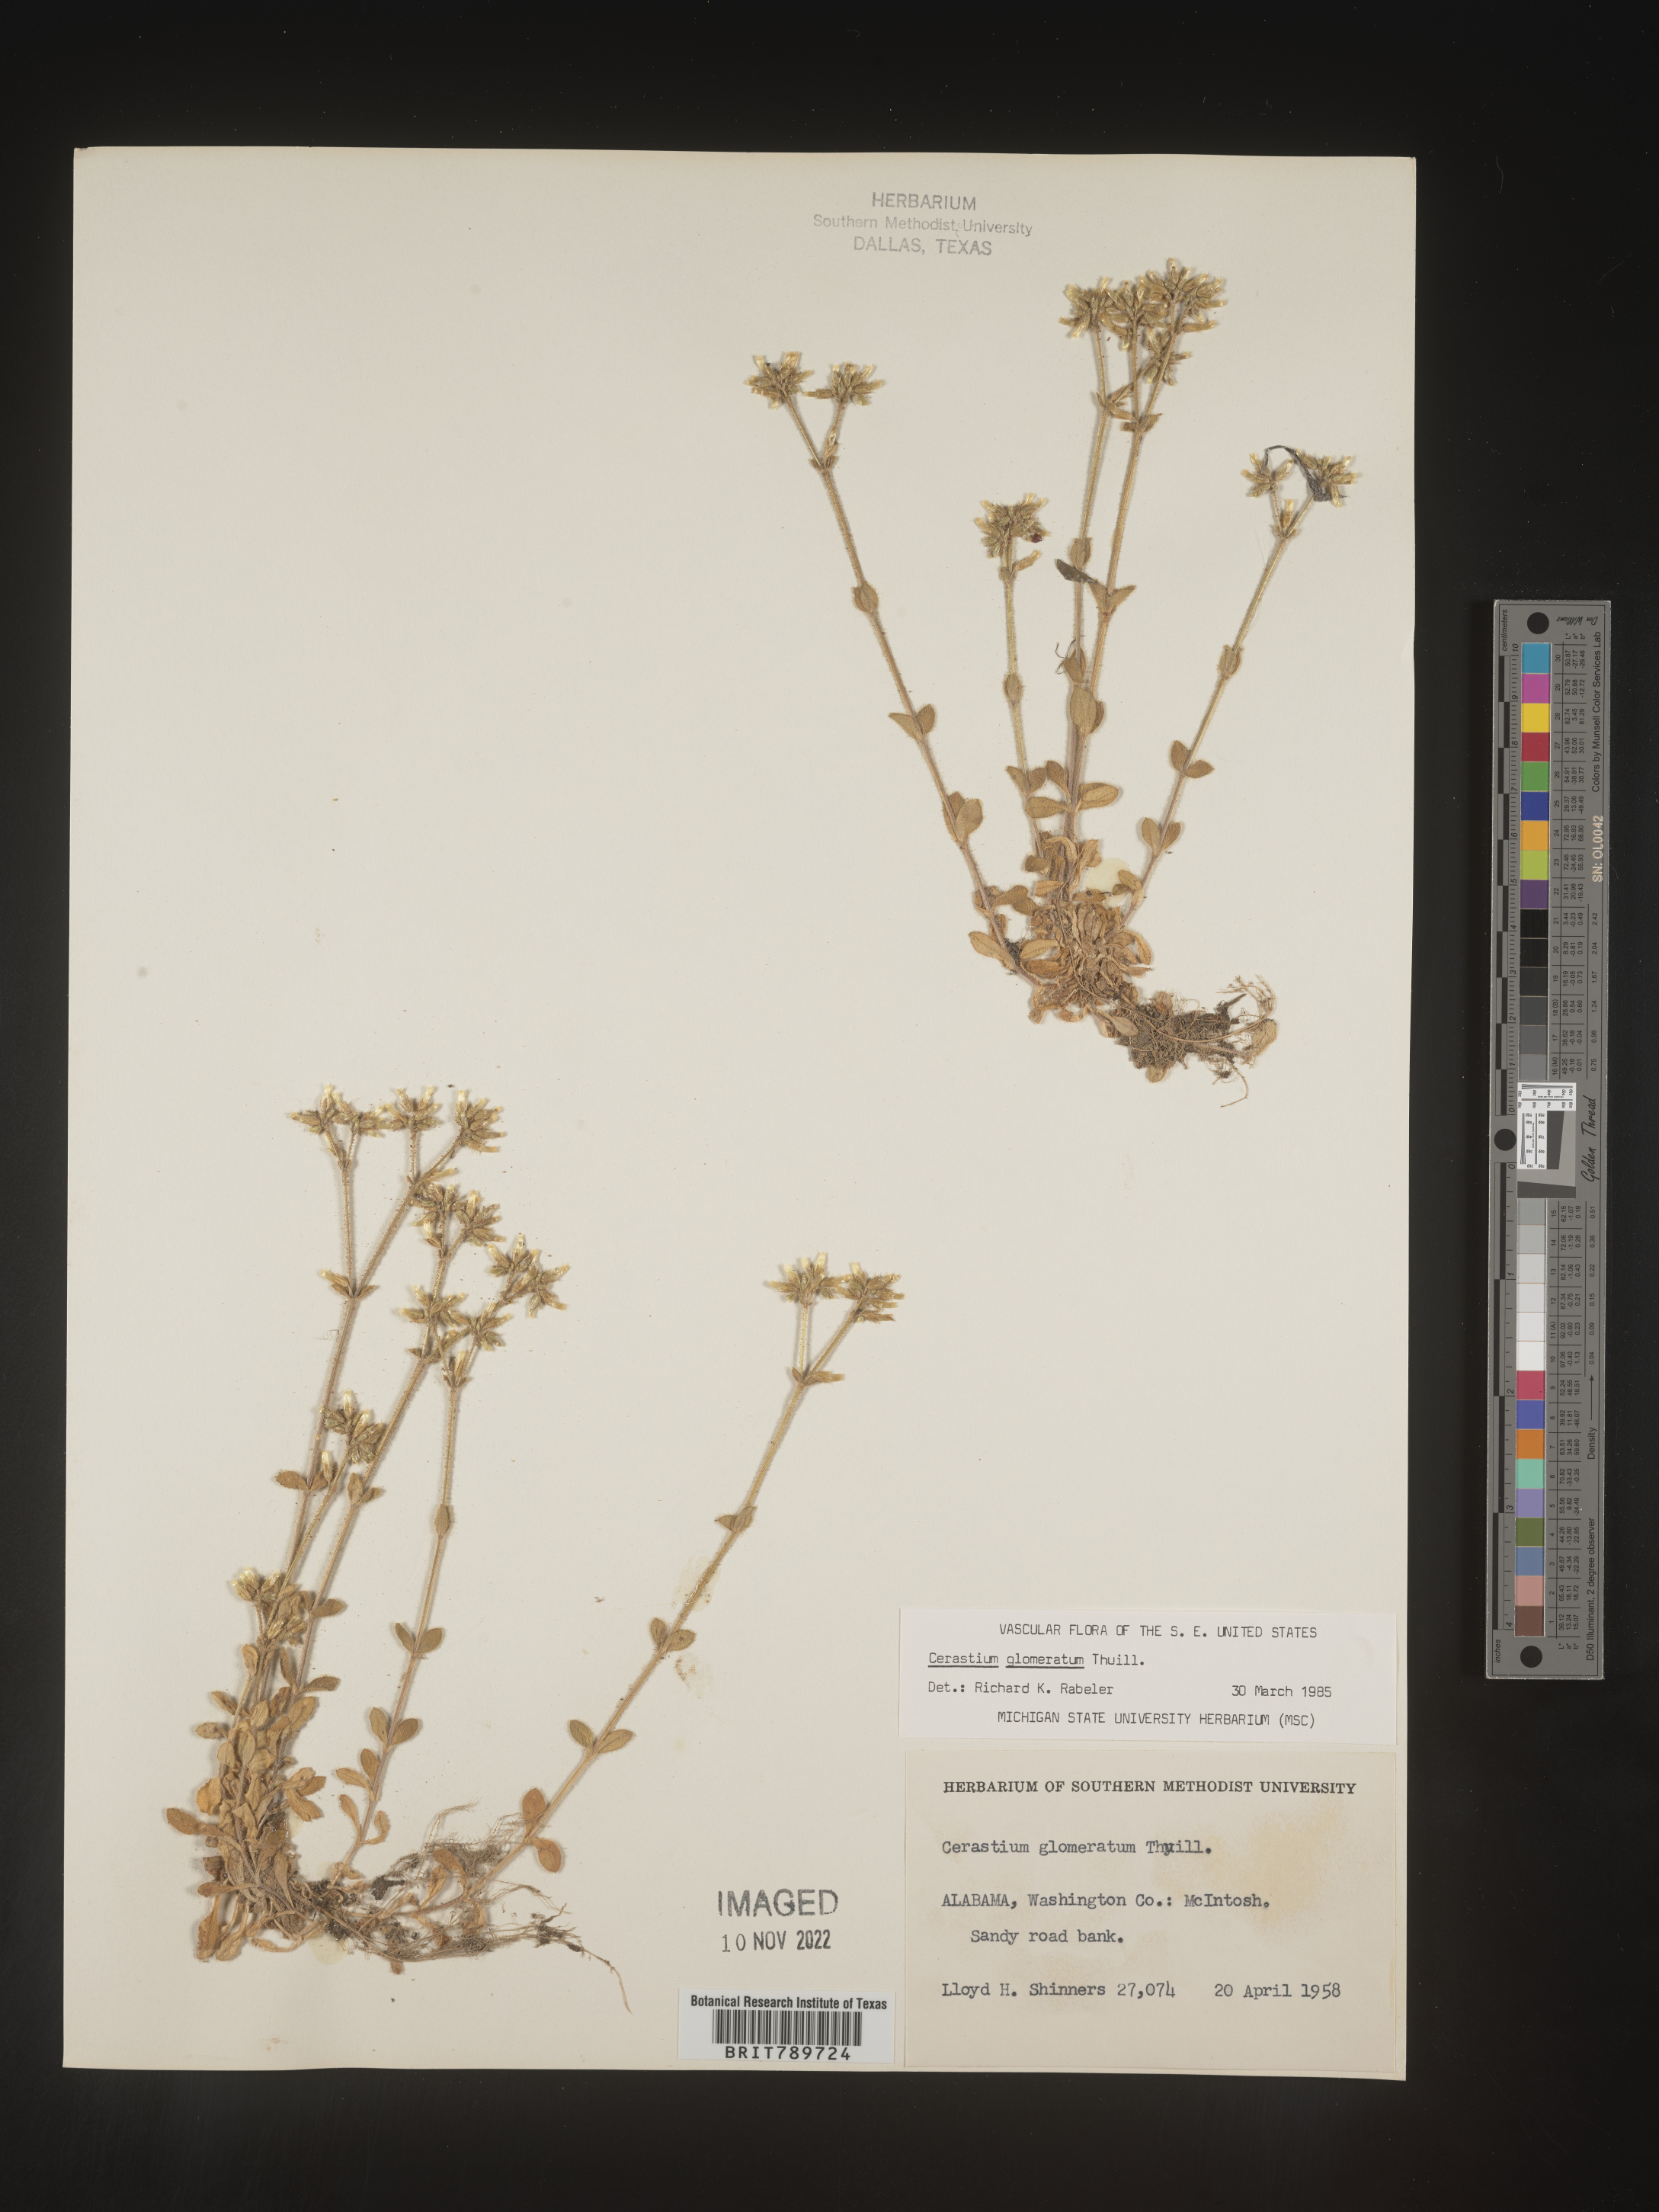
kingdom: Plantae
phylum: Tracheophyta
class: Magnoliopsida
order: Caryophyllales
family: Caryophyllaceae
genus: Cerastium
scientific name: Cerastium glomeratum
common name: Sticky chickweed
